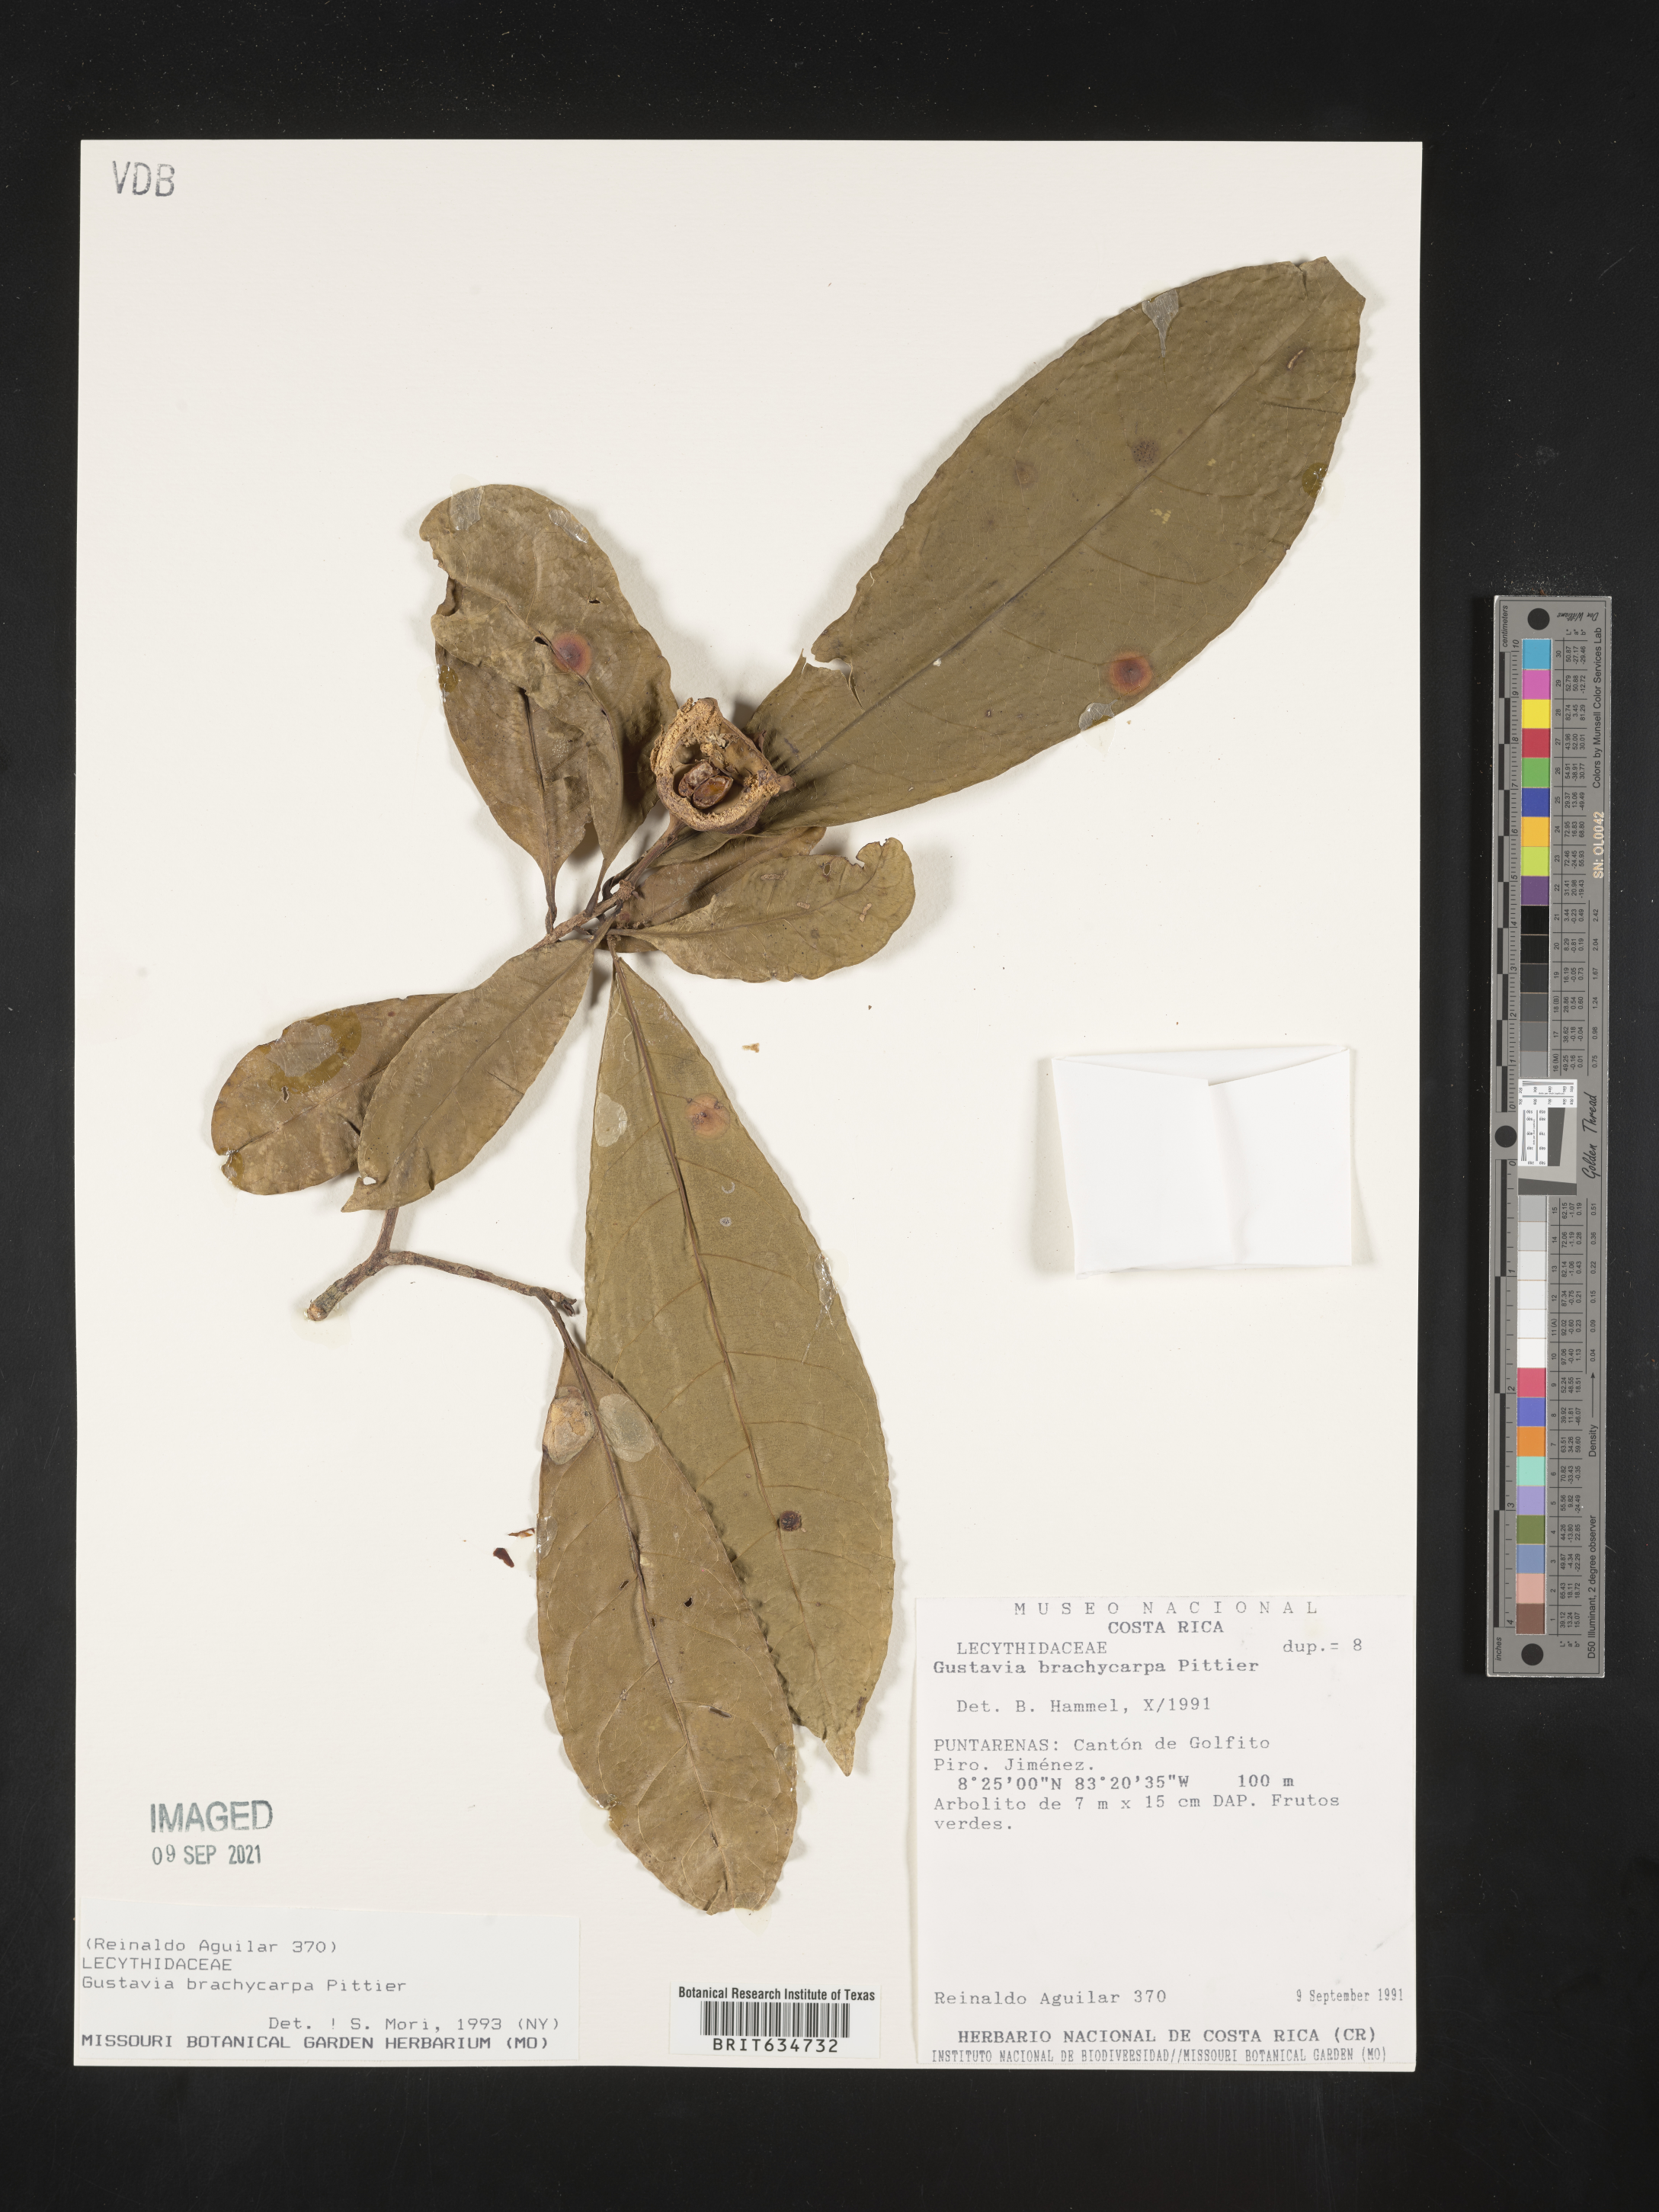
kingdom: Plantae
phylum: Tracheophyta
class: Magnoliopsida
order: Ericales
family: Lecythidaceae
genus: Gustavia
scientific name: Gustavia
